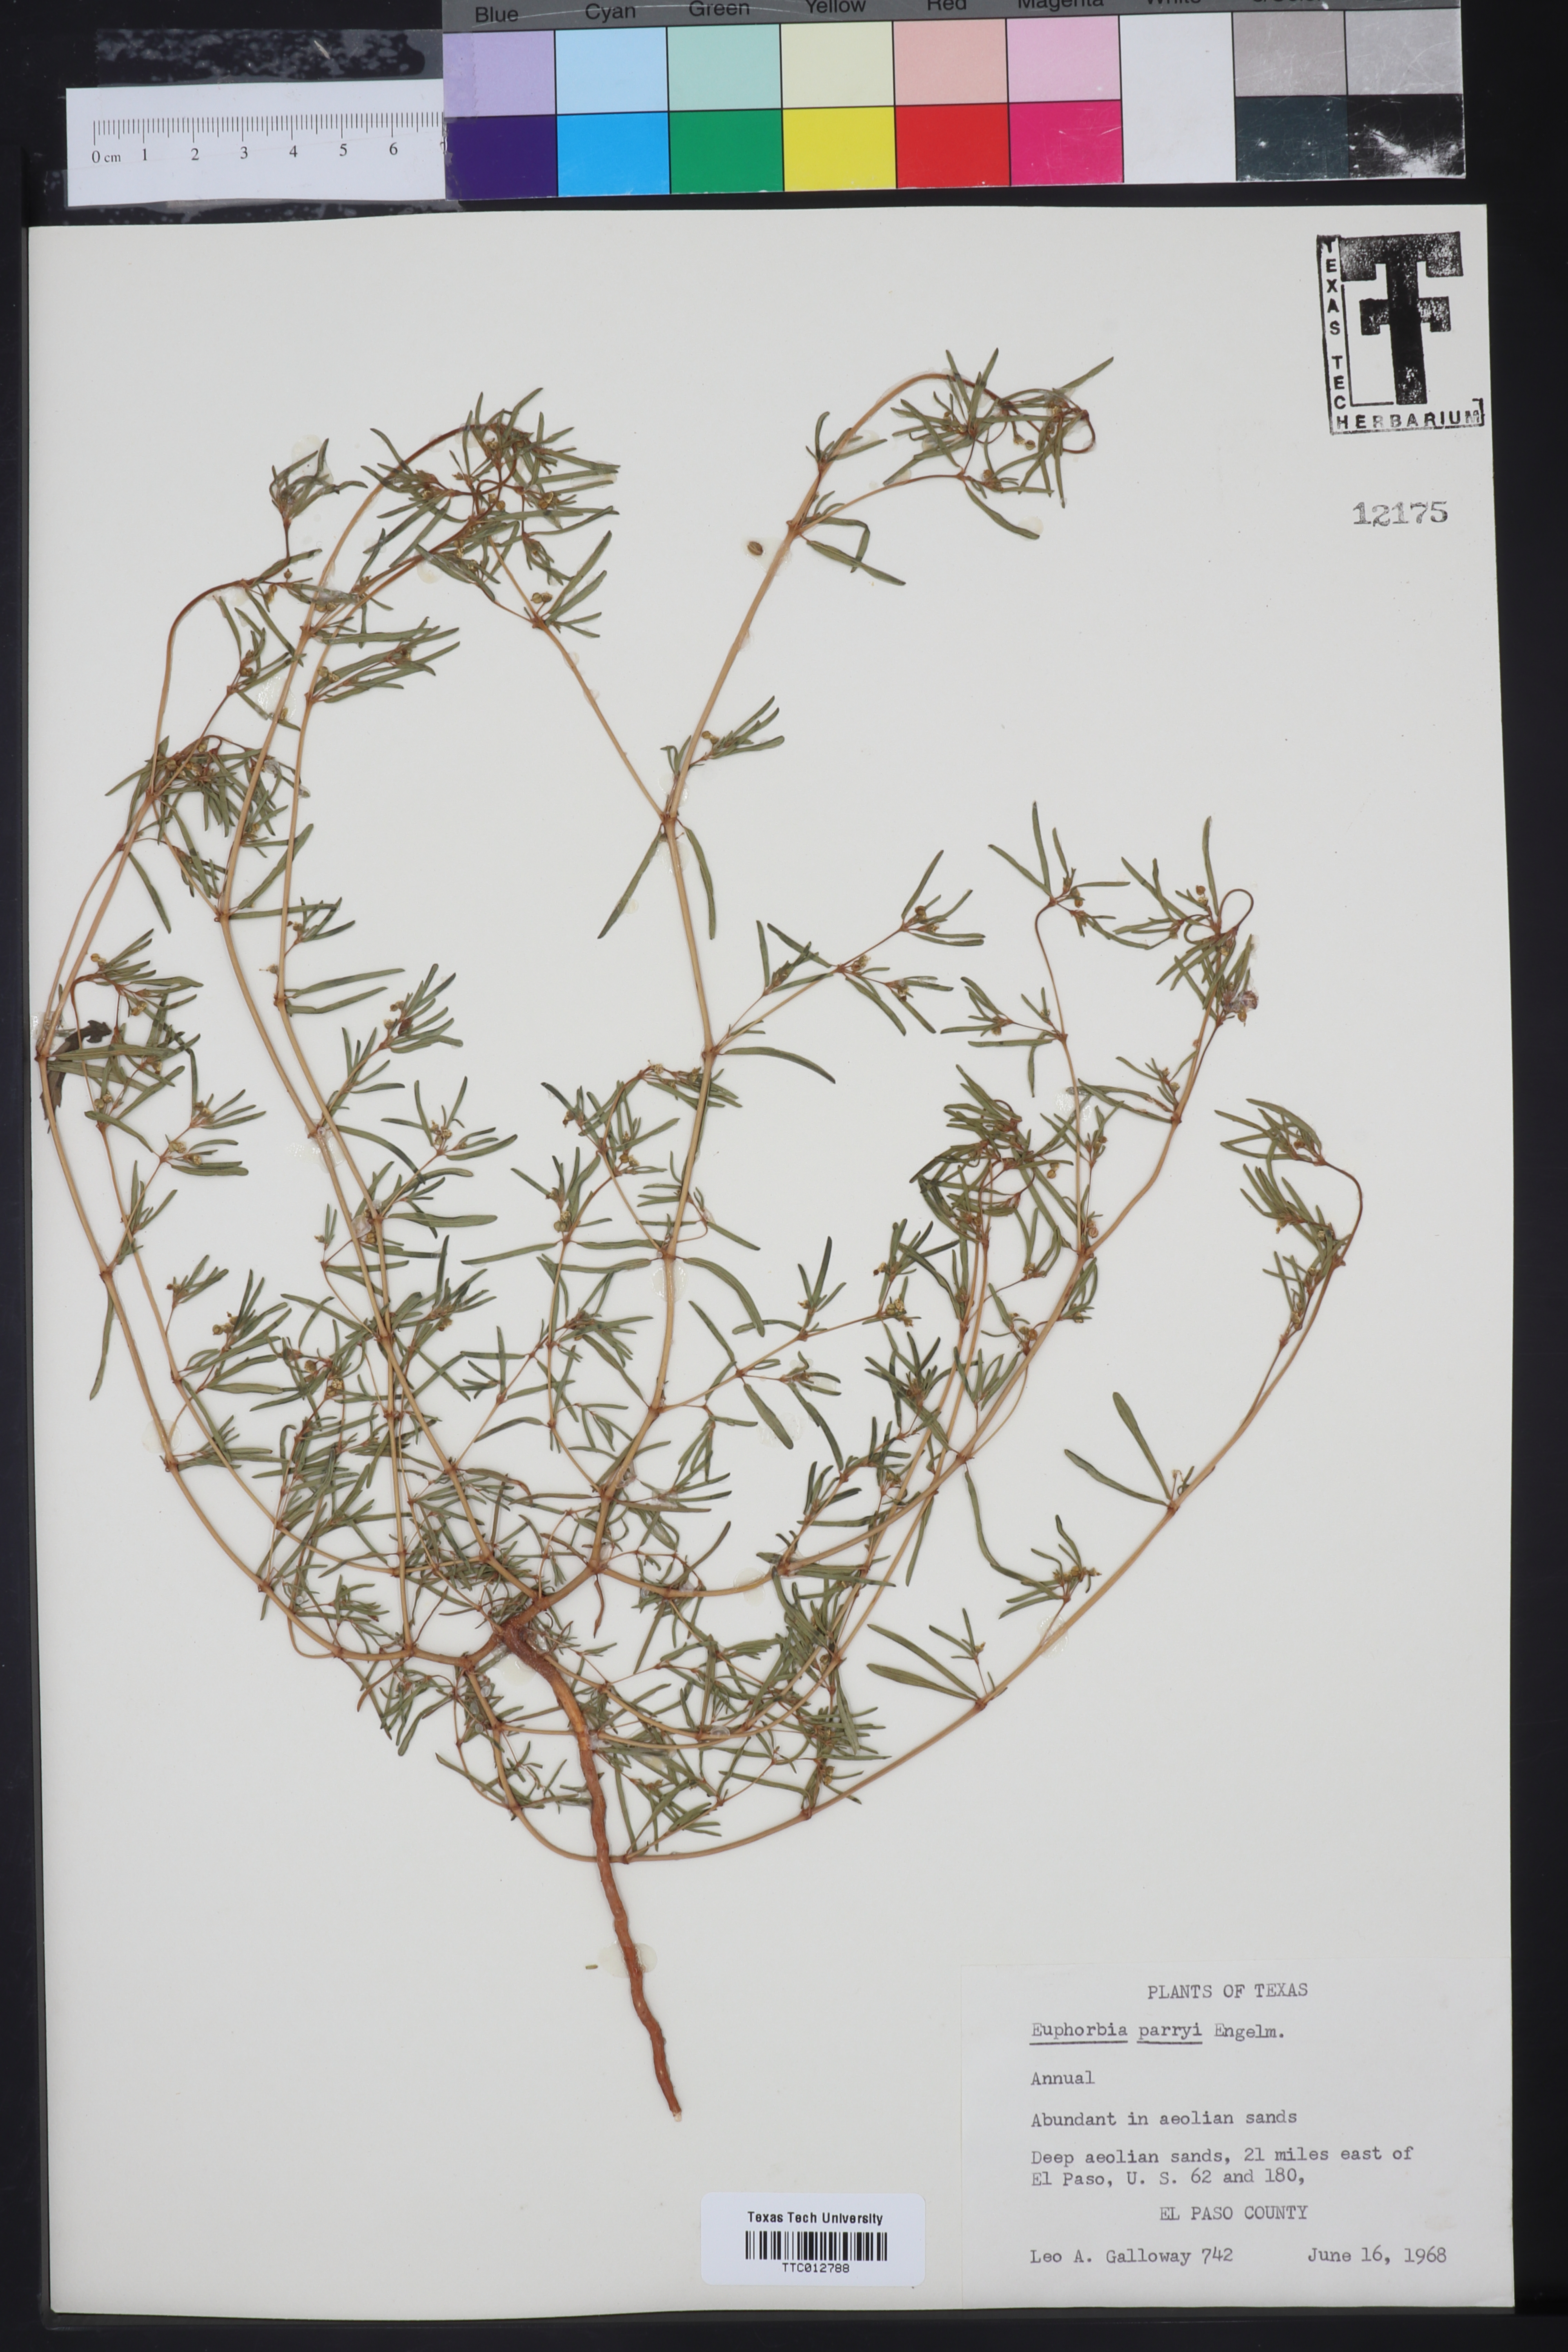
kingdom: Plantae
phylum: Tracheophyta
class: Magnoliopsida
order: Malpighiales
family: Euphorbiaceae
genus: Euphorbia
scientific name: Euphorbia parryi
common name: Dune spurge
